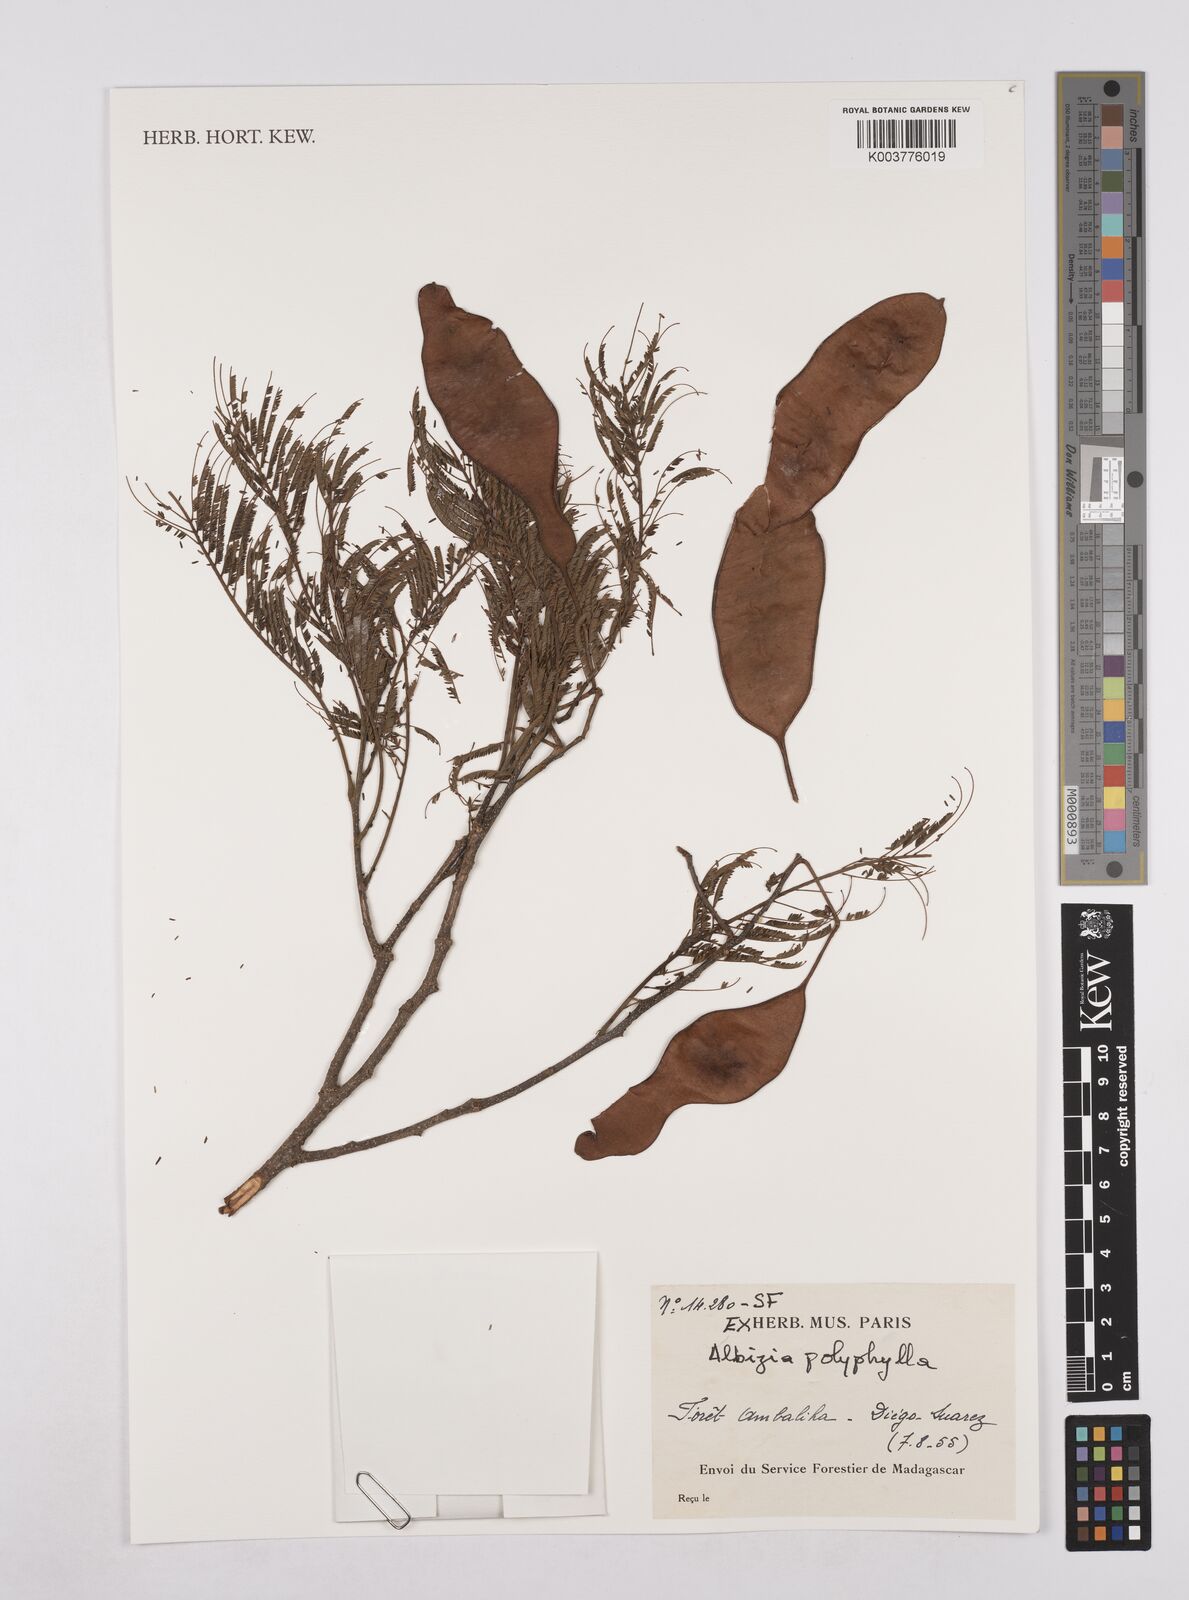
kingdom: Plantae
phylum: Tracheophyta
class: Magnoliopsida
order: Fabales
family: Fabaceae
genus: Albizia
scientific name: Albizia polyphylla
